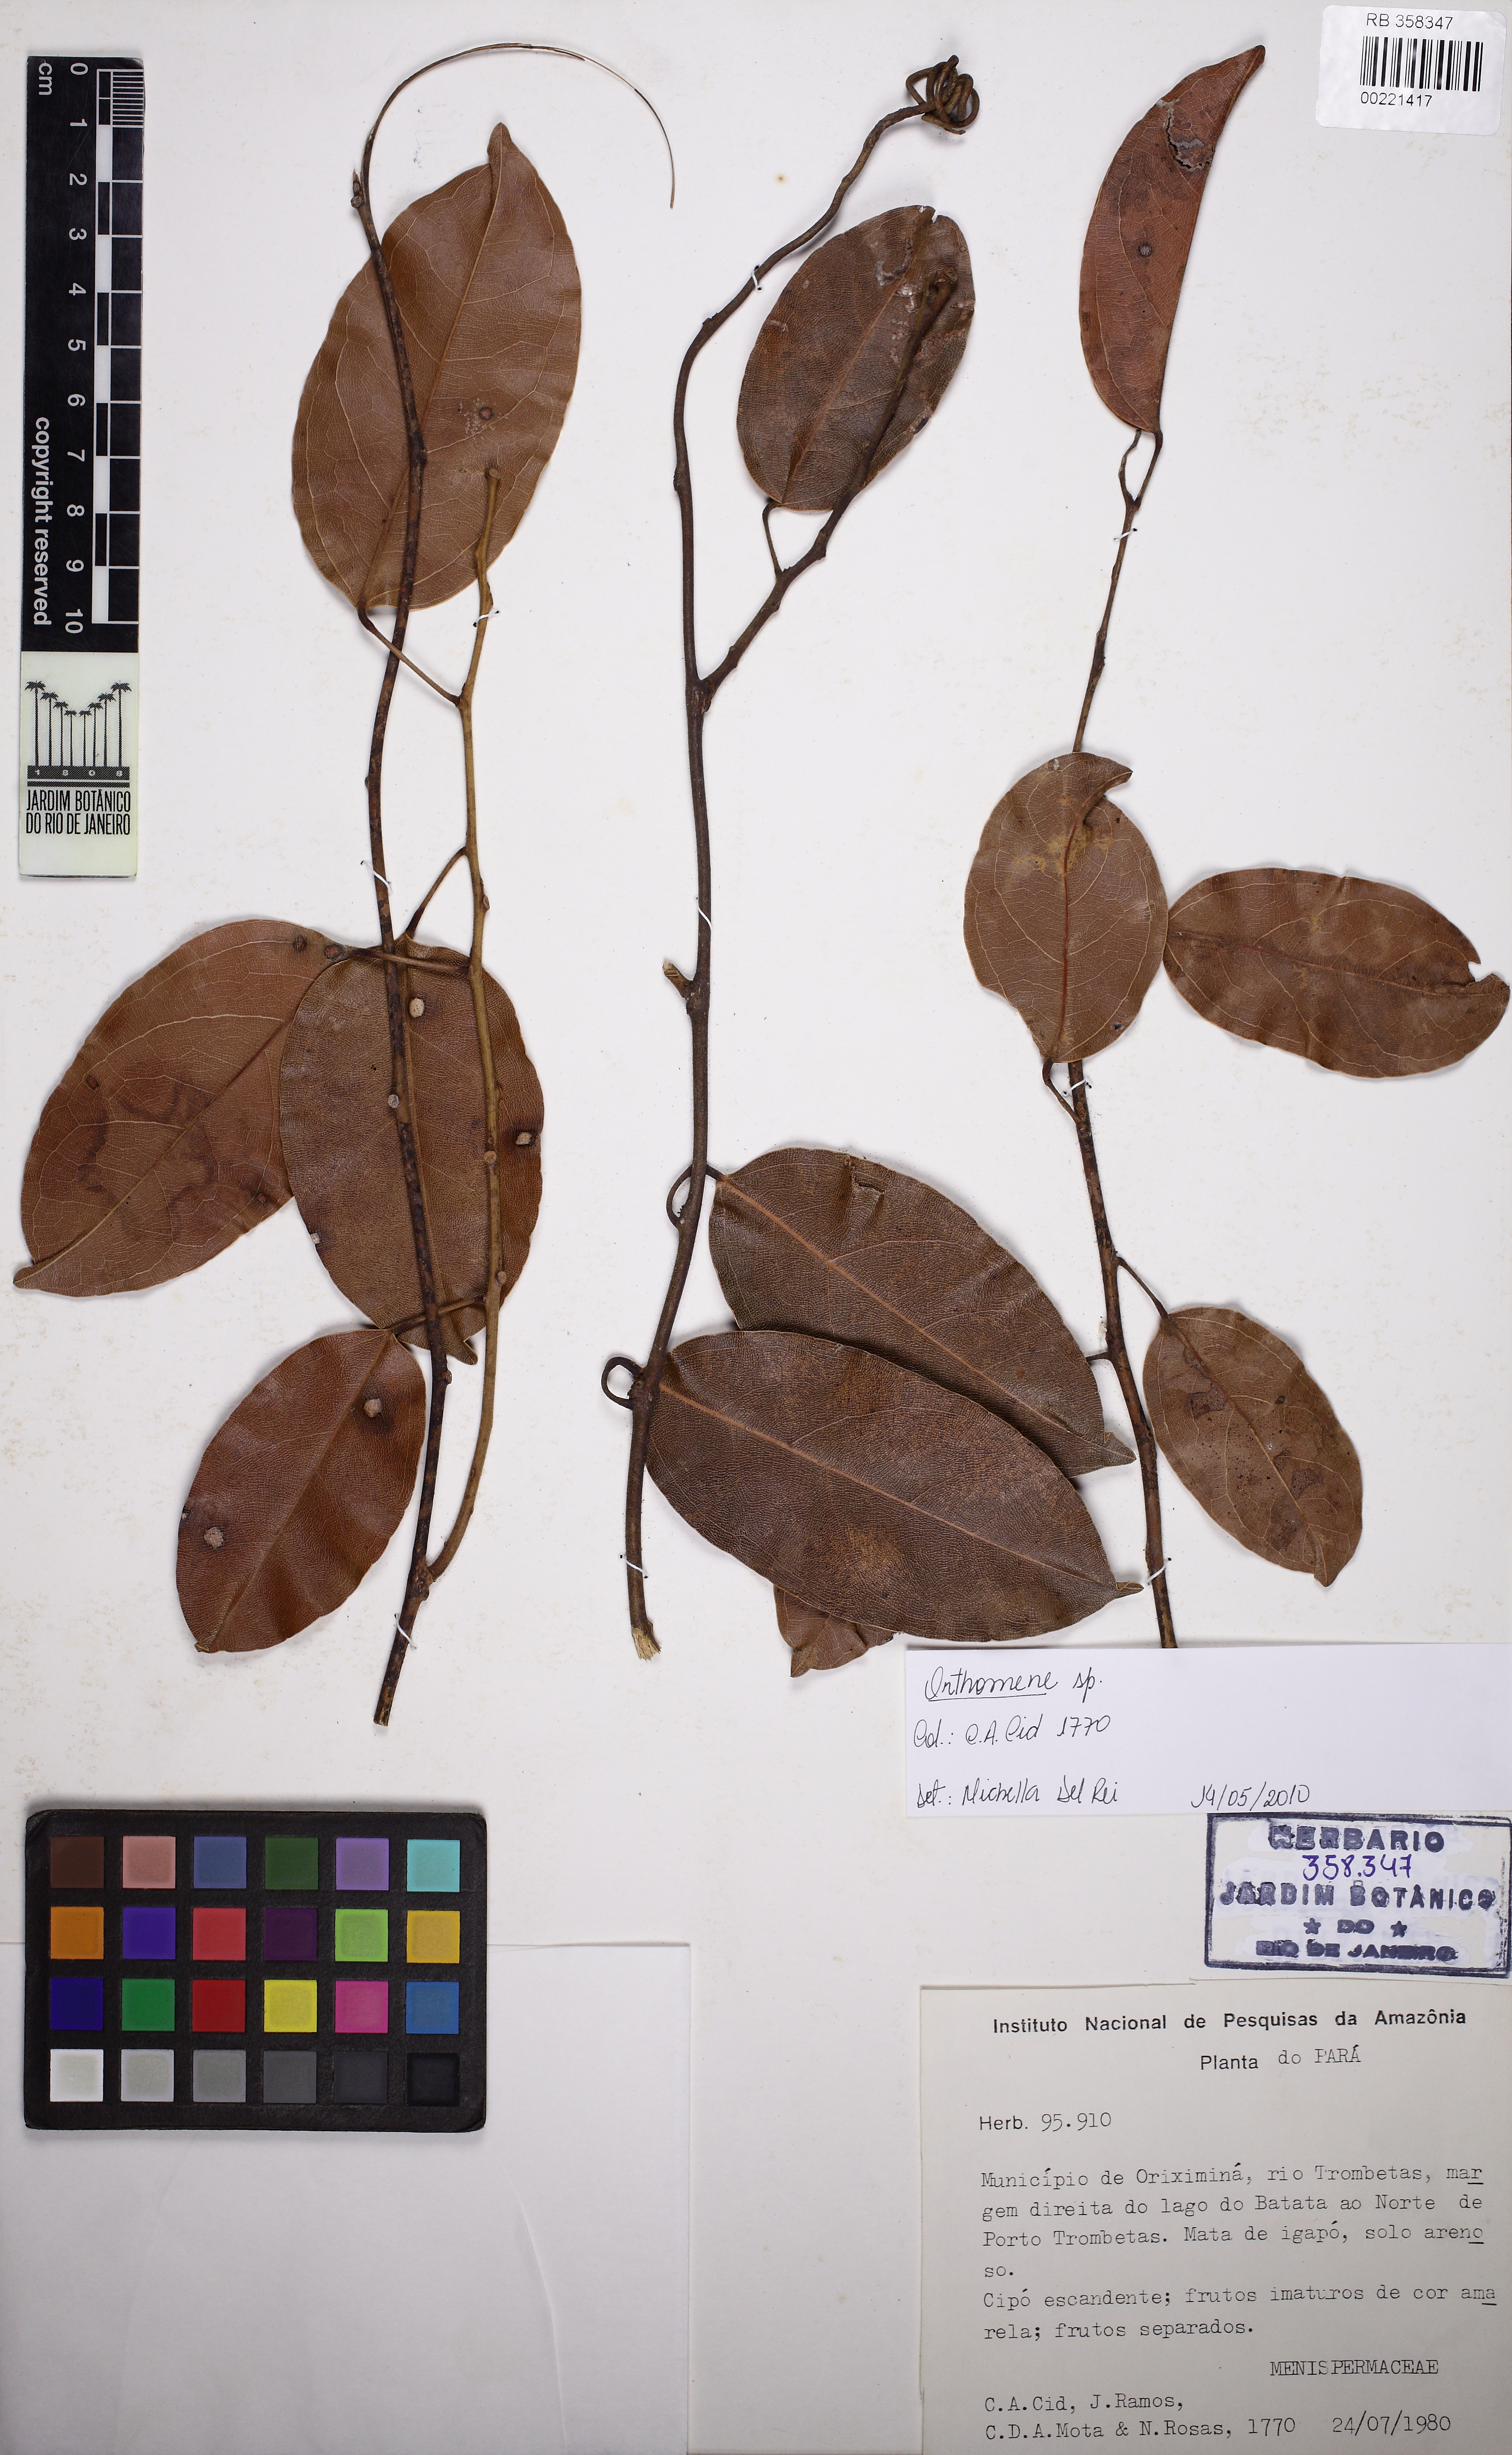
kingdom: Plantae
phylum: Tracheophyta
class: Magnoliopsida
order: Ranunculales
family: Menispermaceae
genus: Orthomene
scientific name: Orthomene schomburgkii
